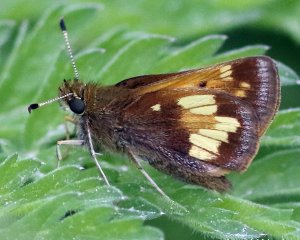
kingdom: Animalia
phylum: Arthropoda
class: Insecta
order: Lepidoptera
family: Hesperiidae
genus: Lon
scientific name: Lon hobomok
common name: Hobomok Skipper
